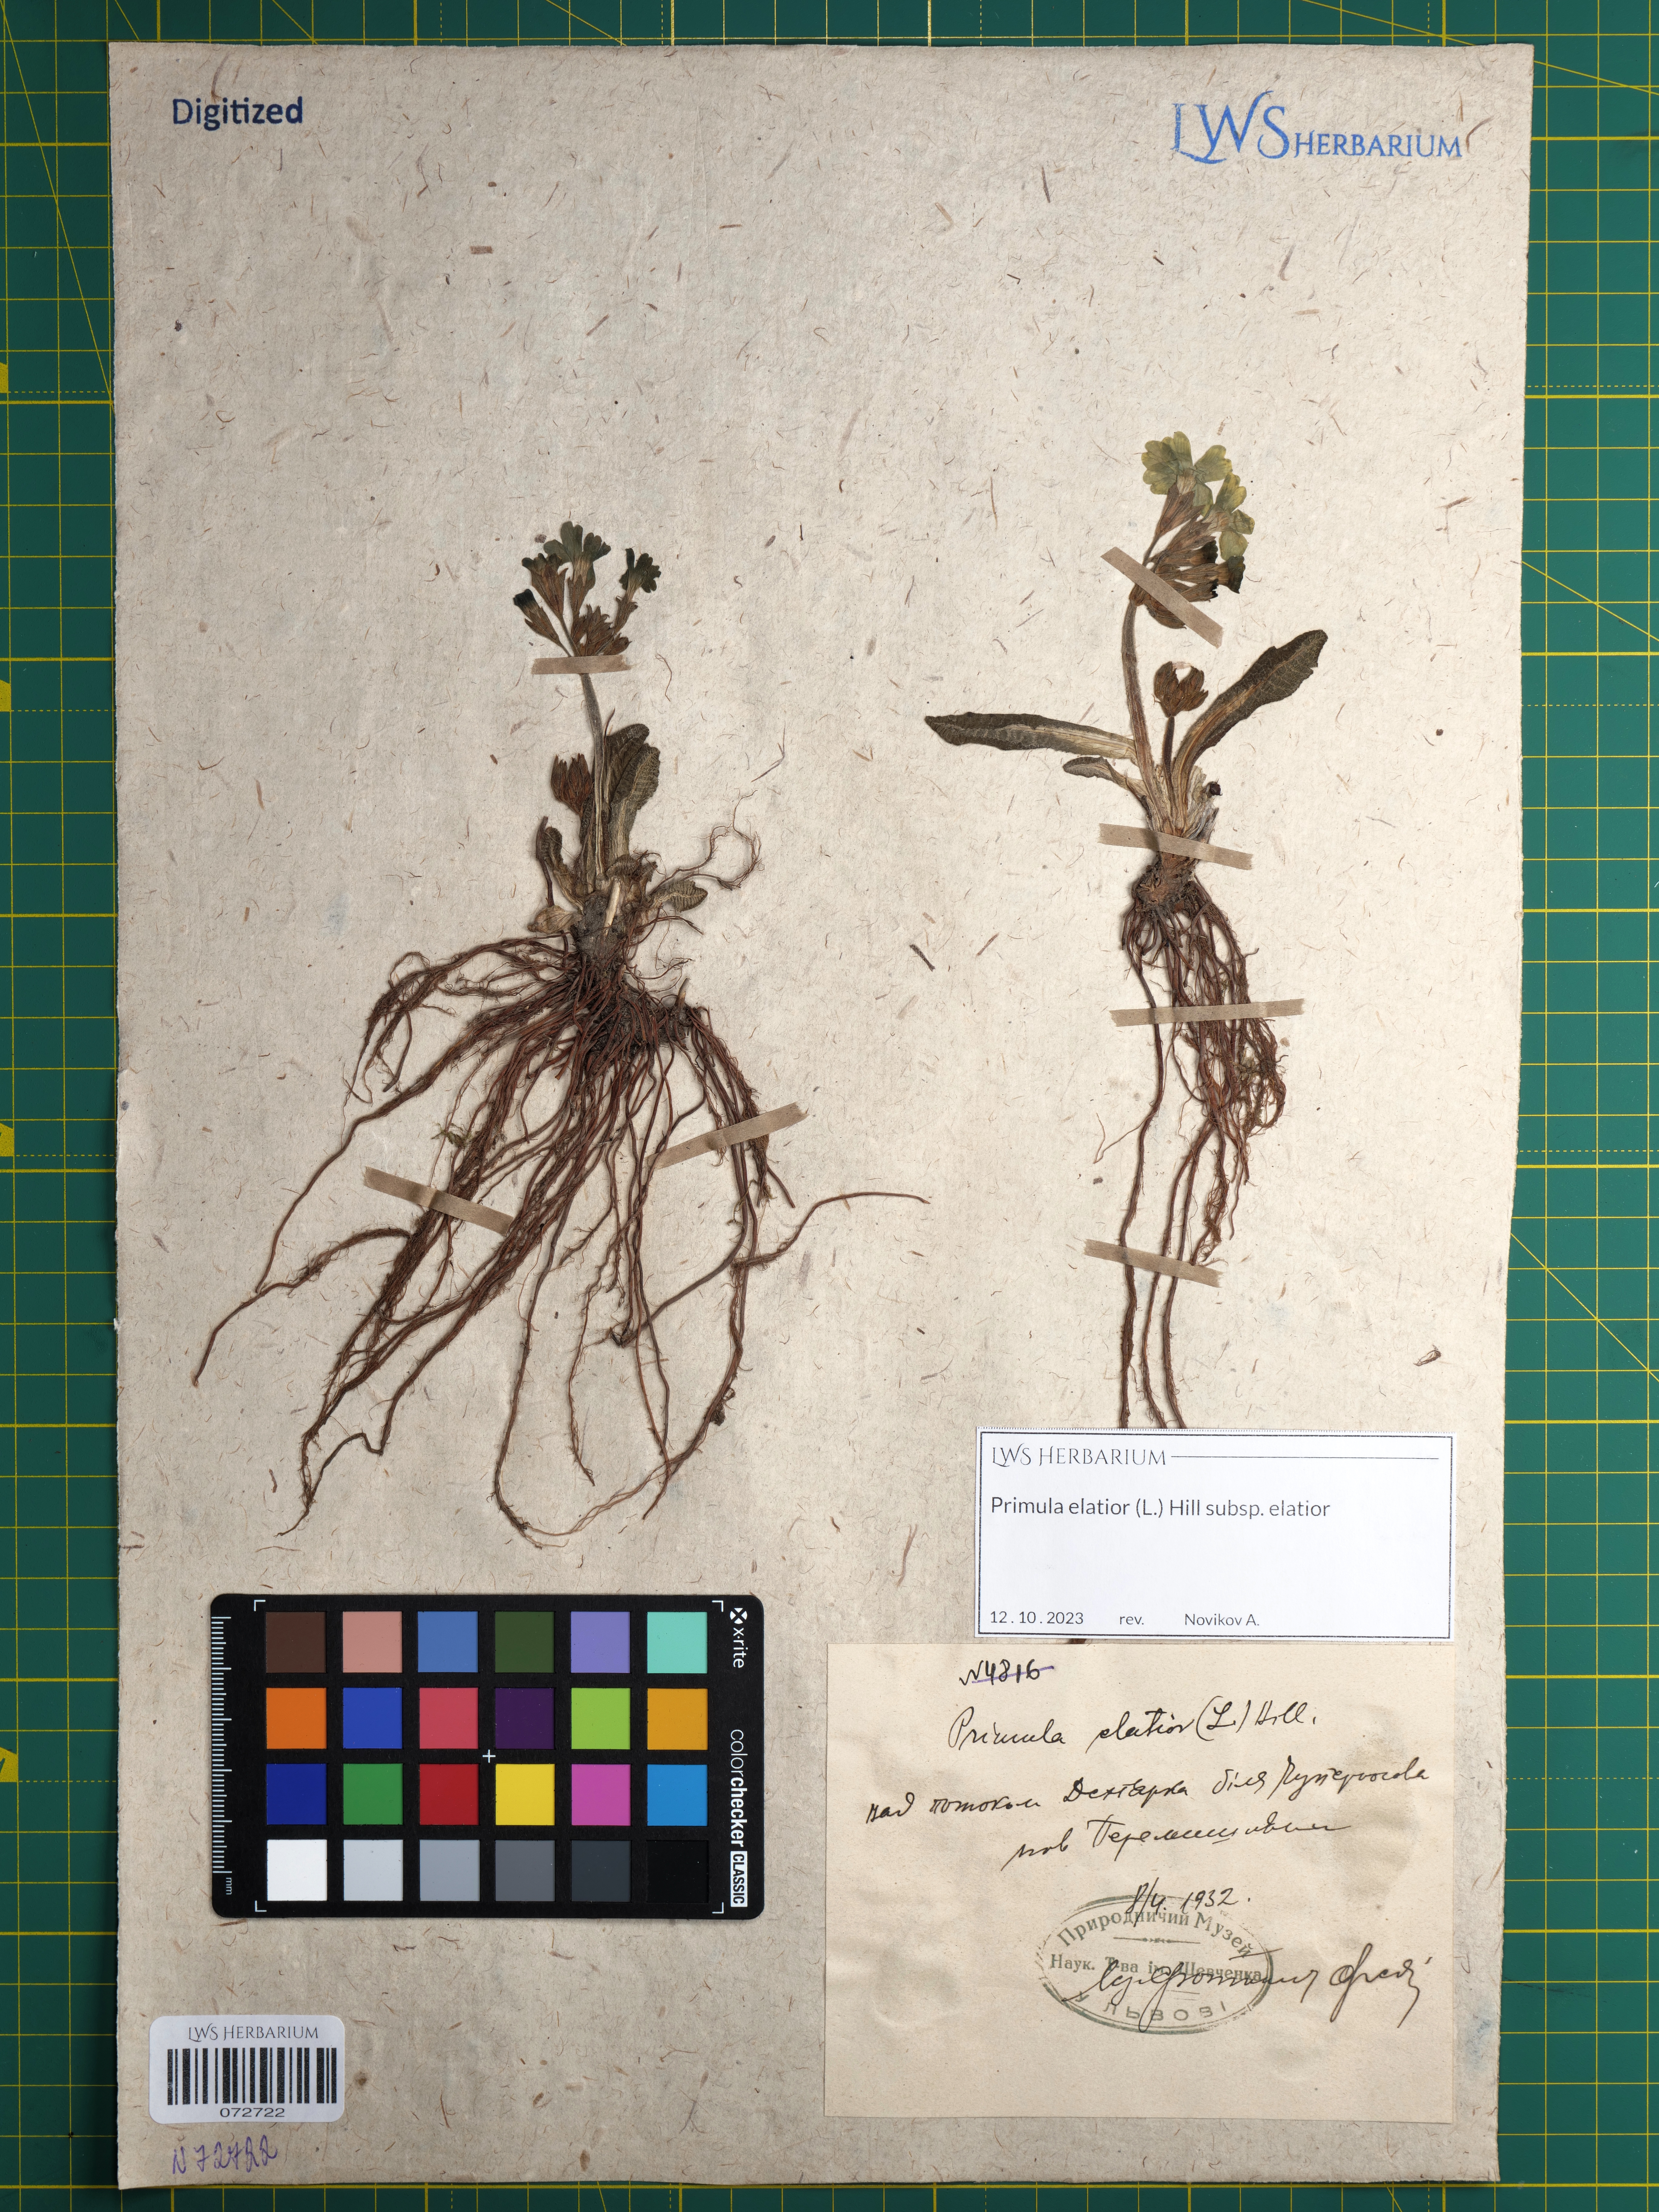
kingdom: Plantae
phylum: Tracheophyta
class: Magnoliopsida
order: Ericales
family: Primulaceae
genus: Primula
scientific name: Primula elatior
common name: Oxlip
